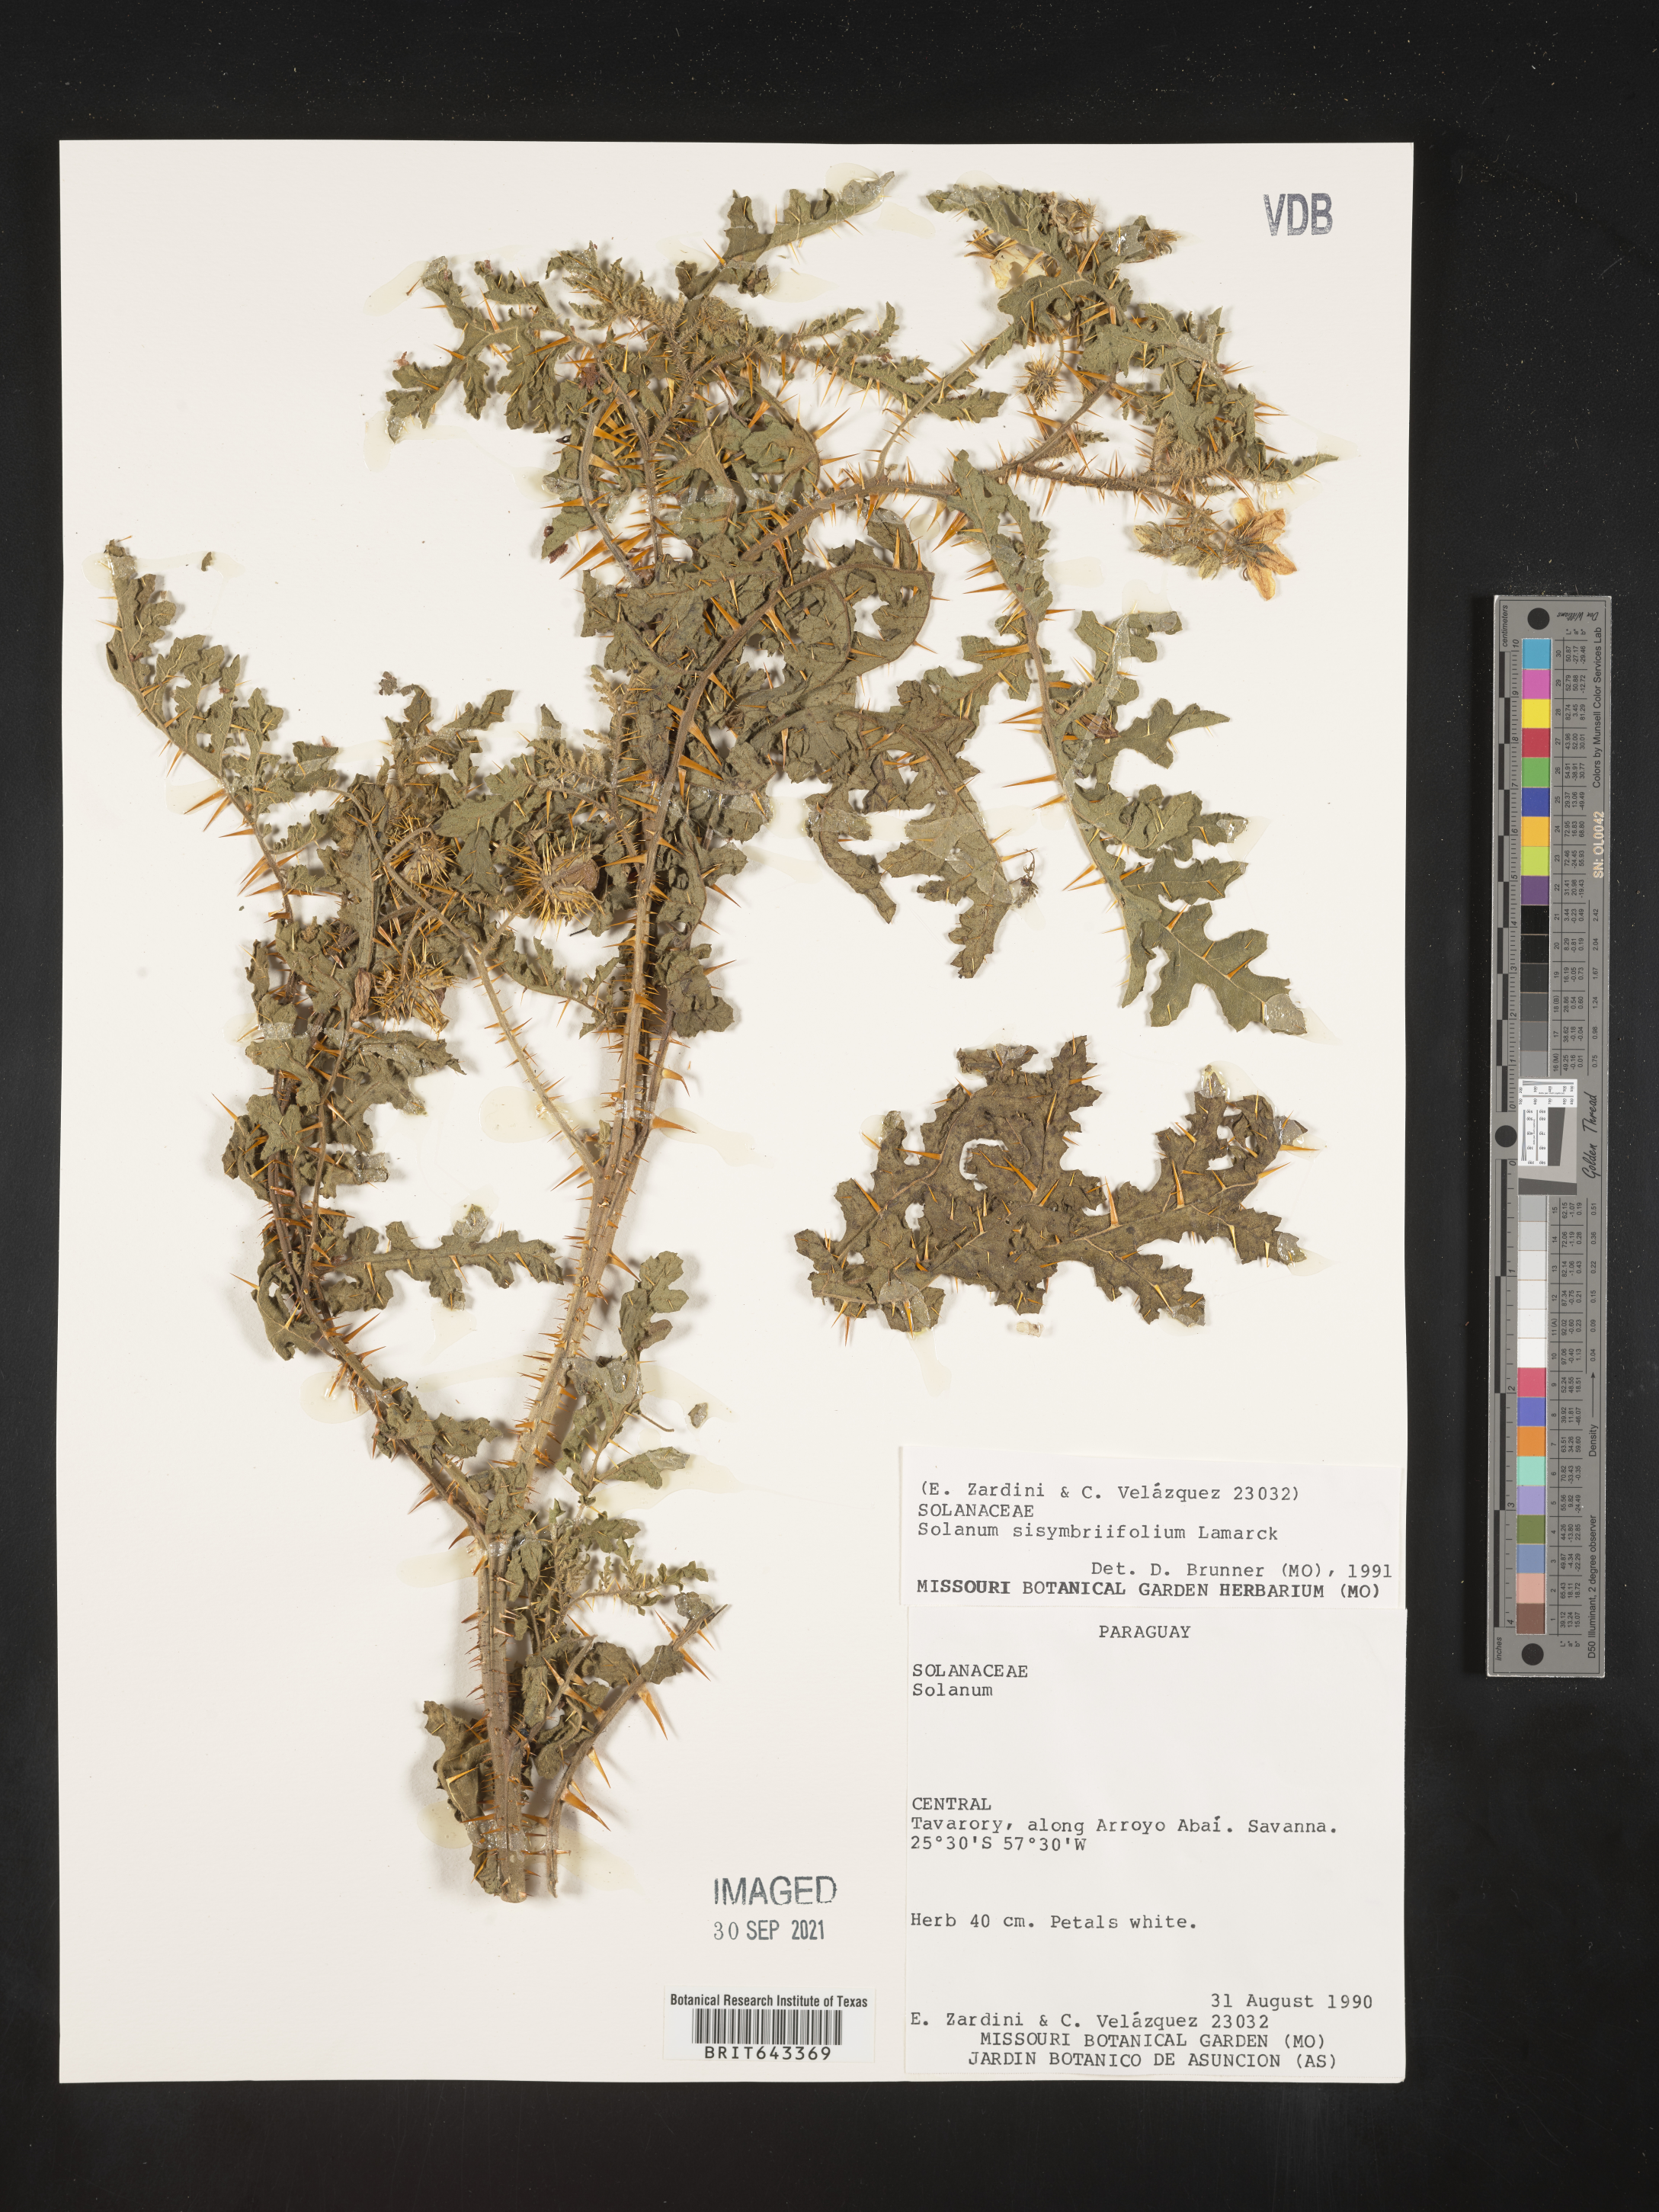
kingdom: Plantae
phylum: Tracheophyta
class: Magnoliopsida
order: Solanales
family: Solanaceae
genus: Solanum
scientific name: Solanum
